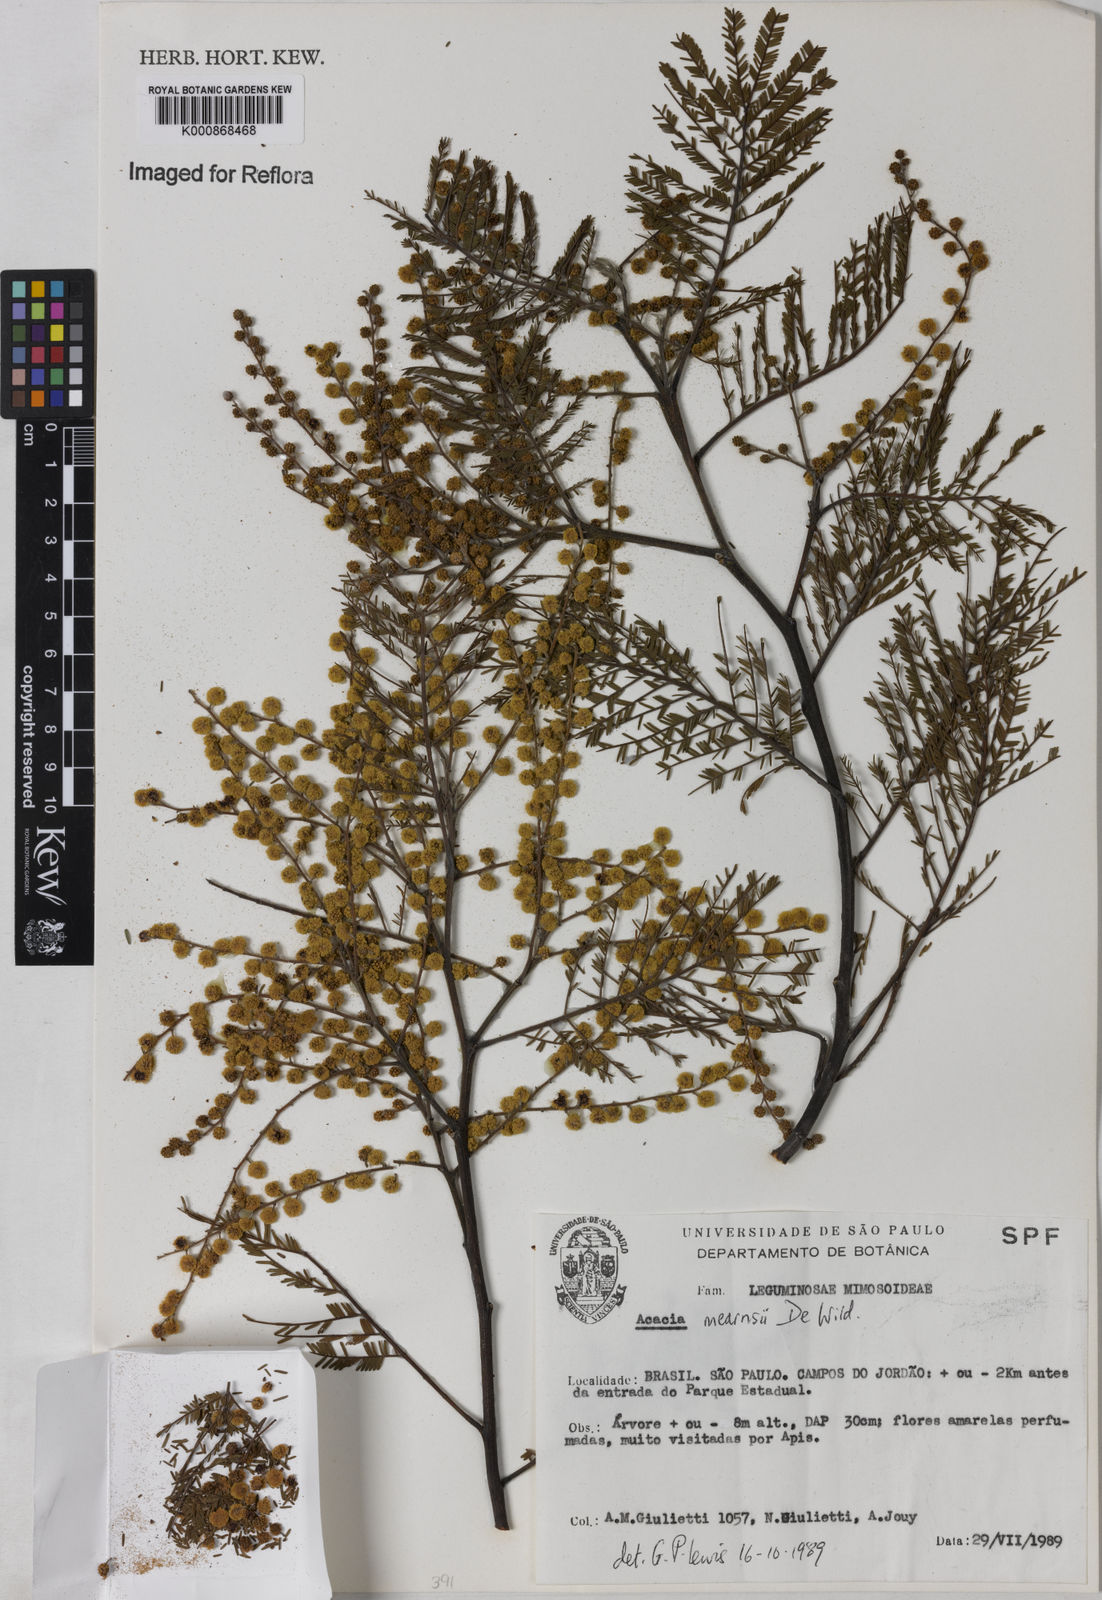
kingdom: Plantae
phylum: Tracheophyta
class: Magnoliopsida
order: Fabales
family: Fabaceae
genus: Acacia
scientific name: Acacia mearnsii
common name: Black wattle
